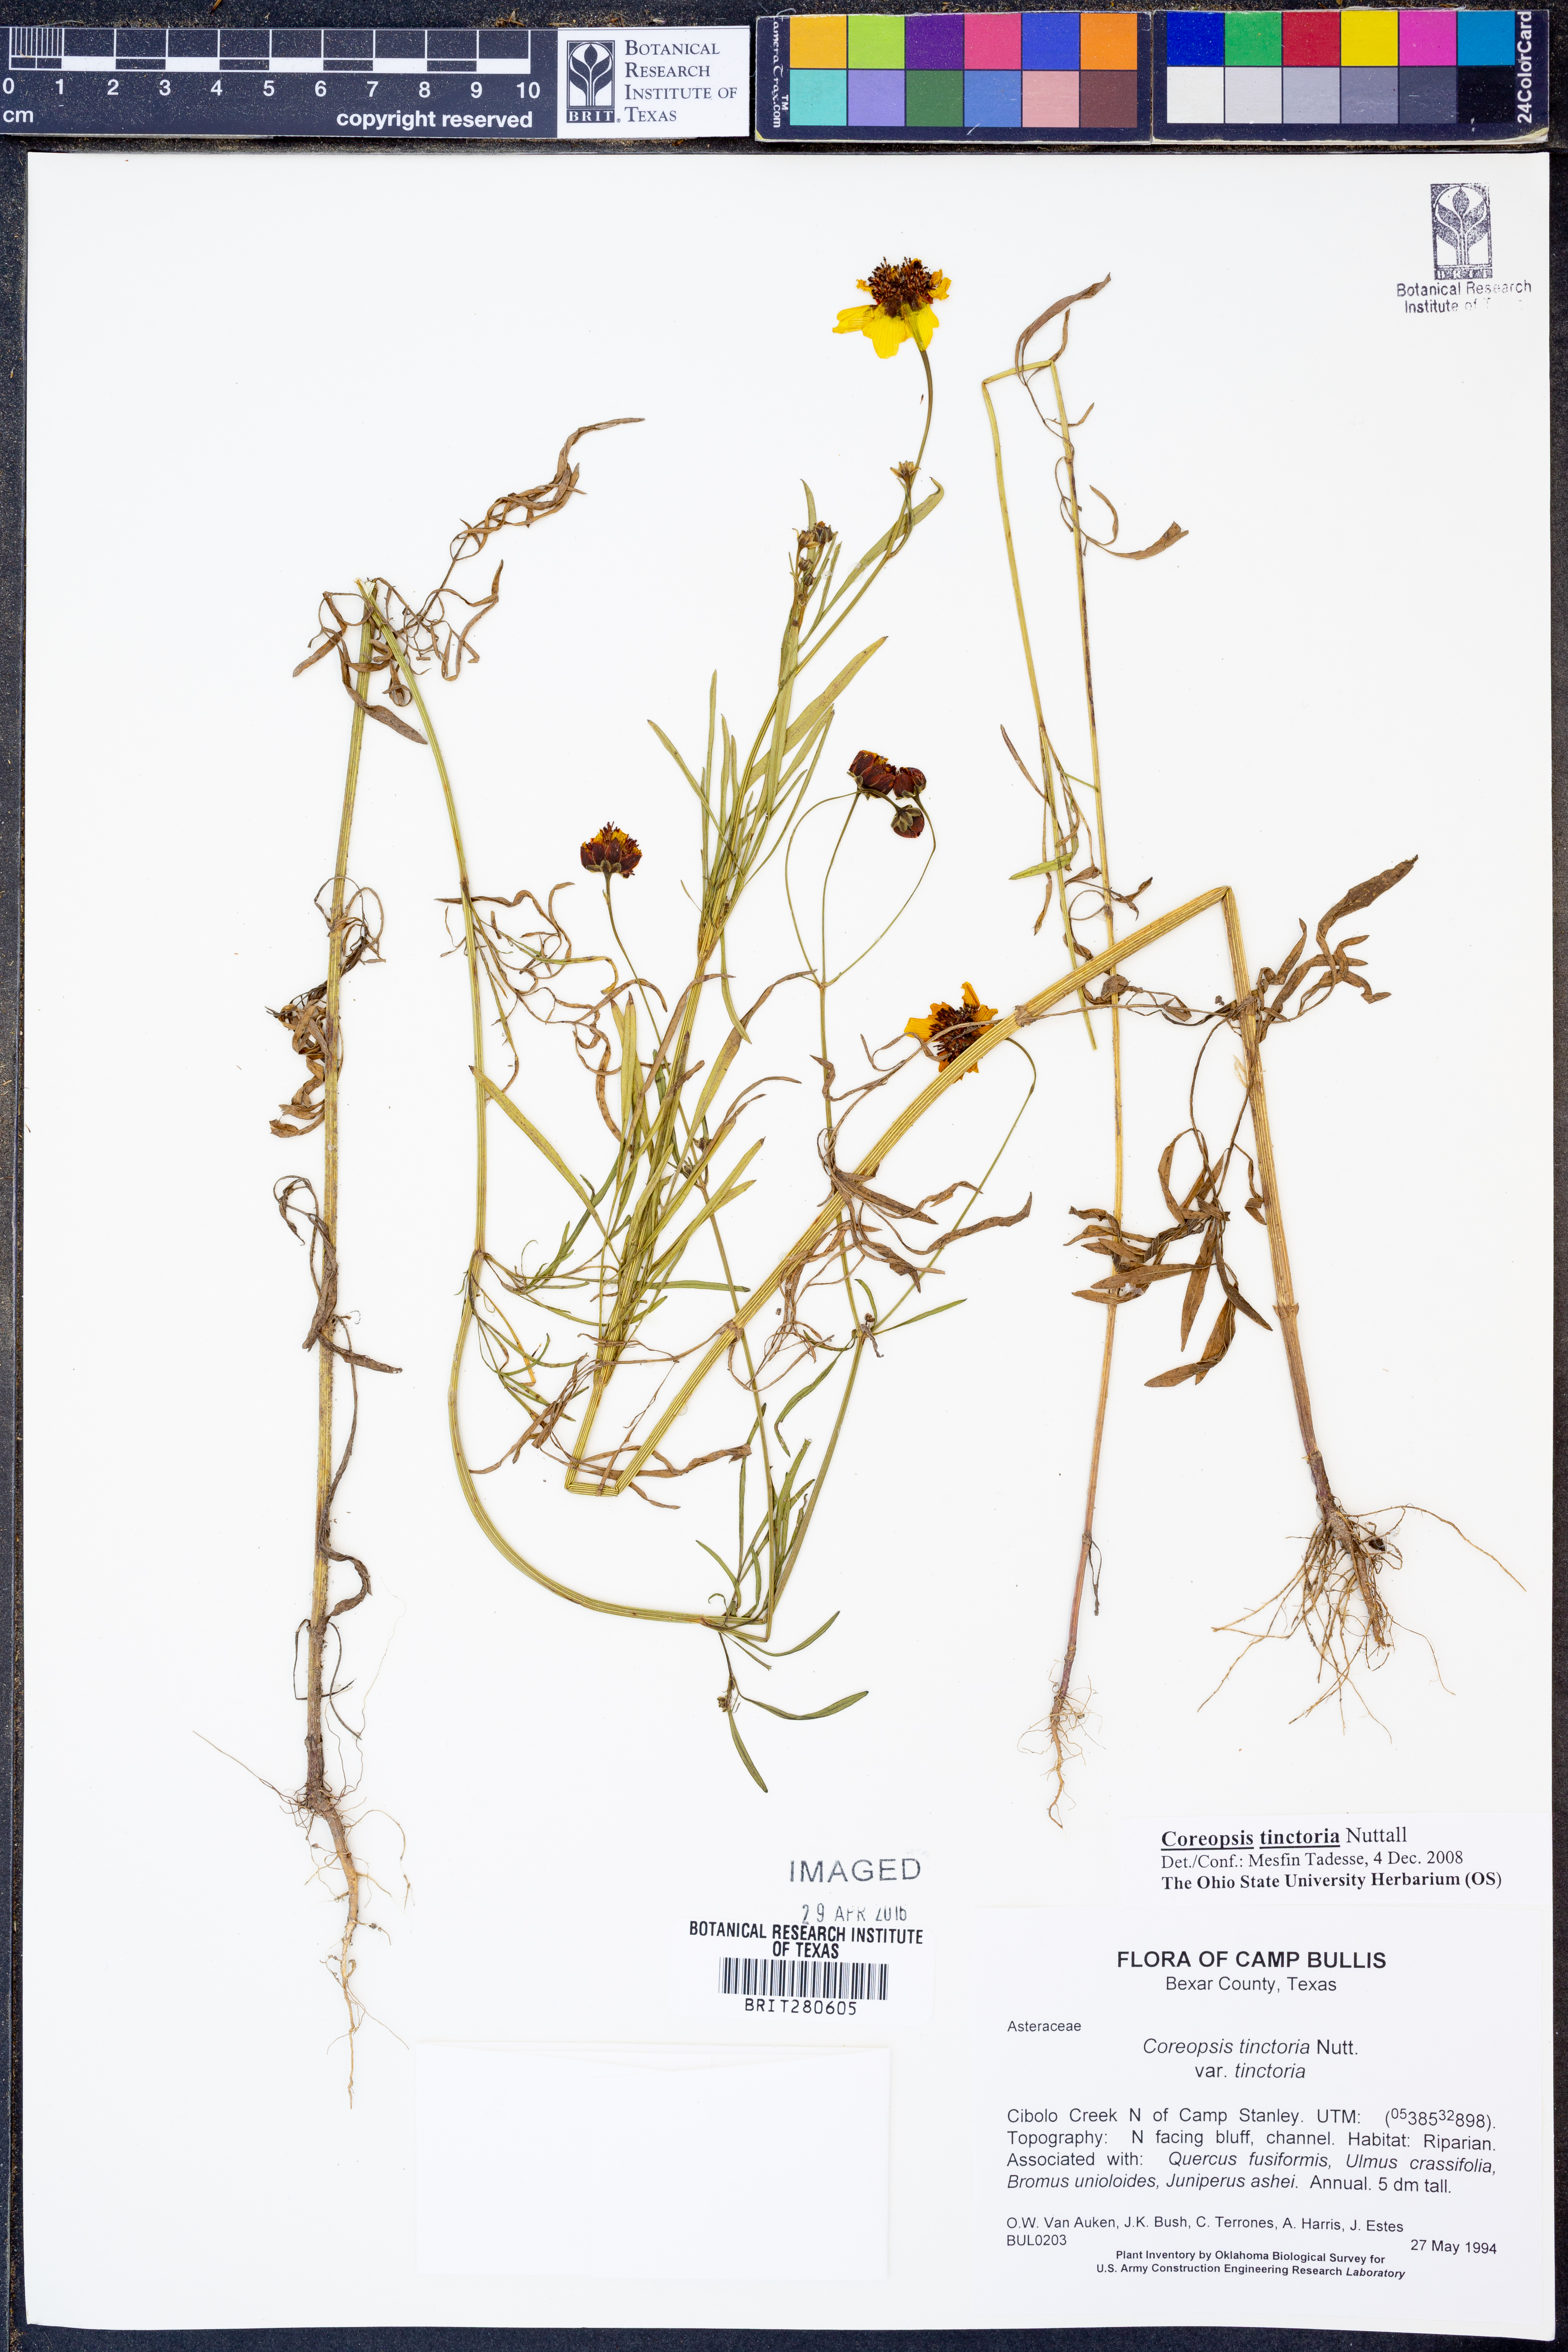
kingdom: Plantae
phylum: Tracheophyta
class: Magnoliopsida
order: Asterales
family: Asteraceae
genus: Coreopsis
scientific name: Coreopsis tinctoria
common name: Garden tickseed
